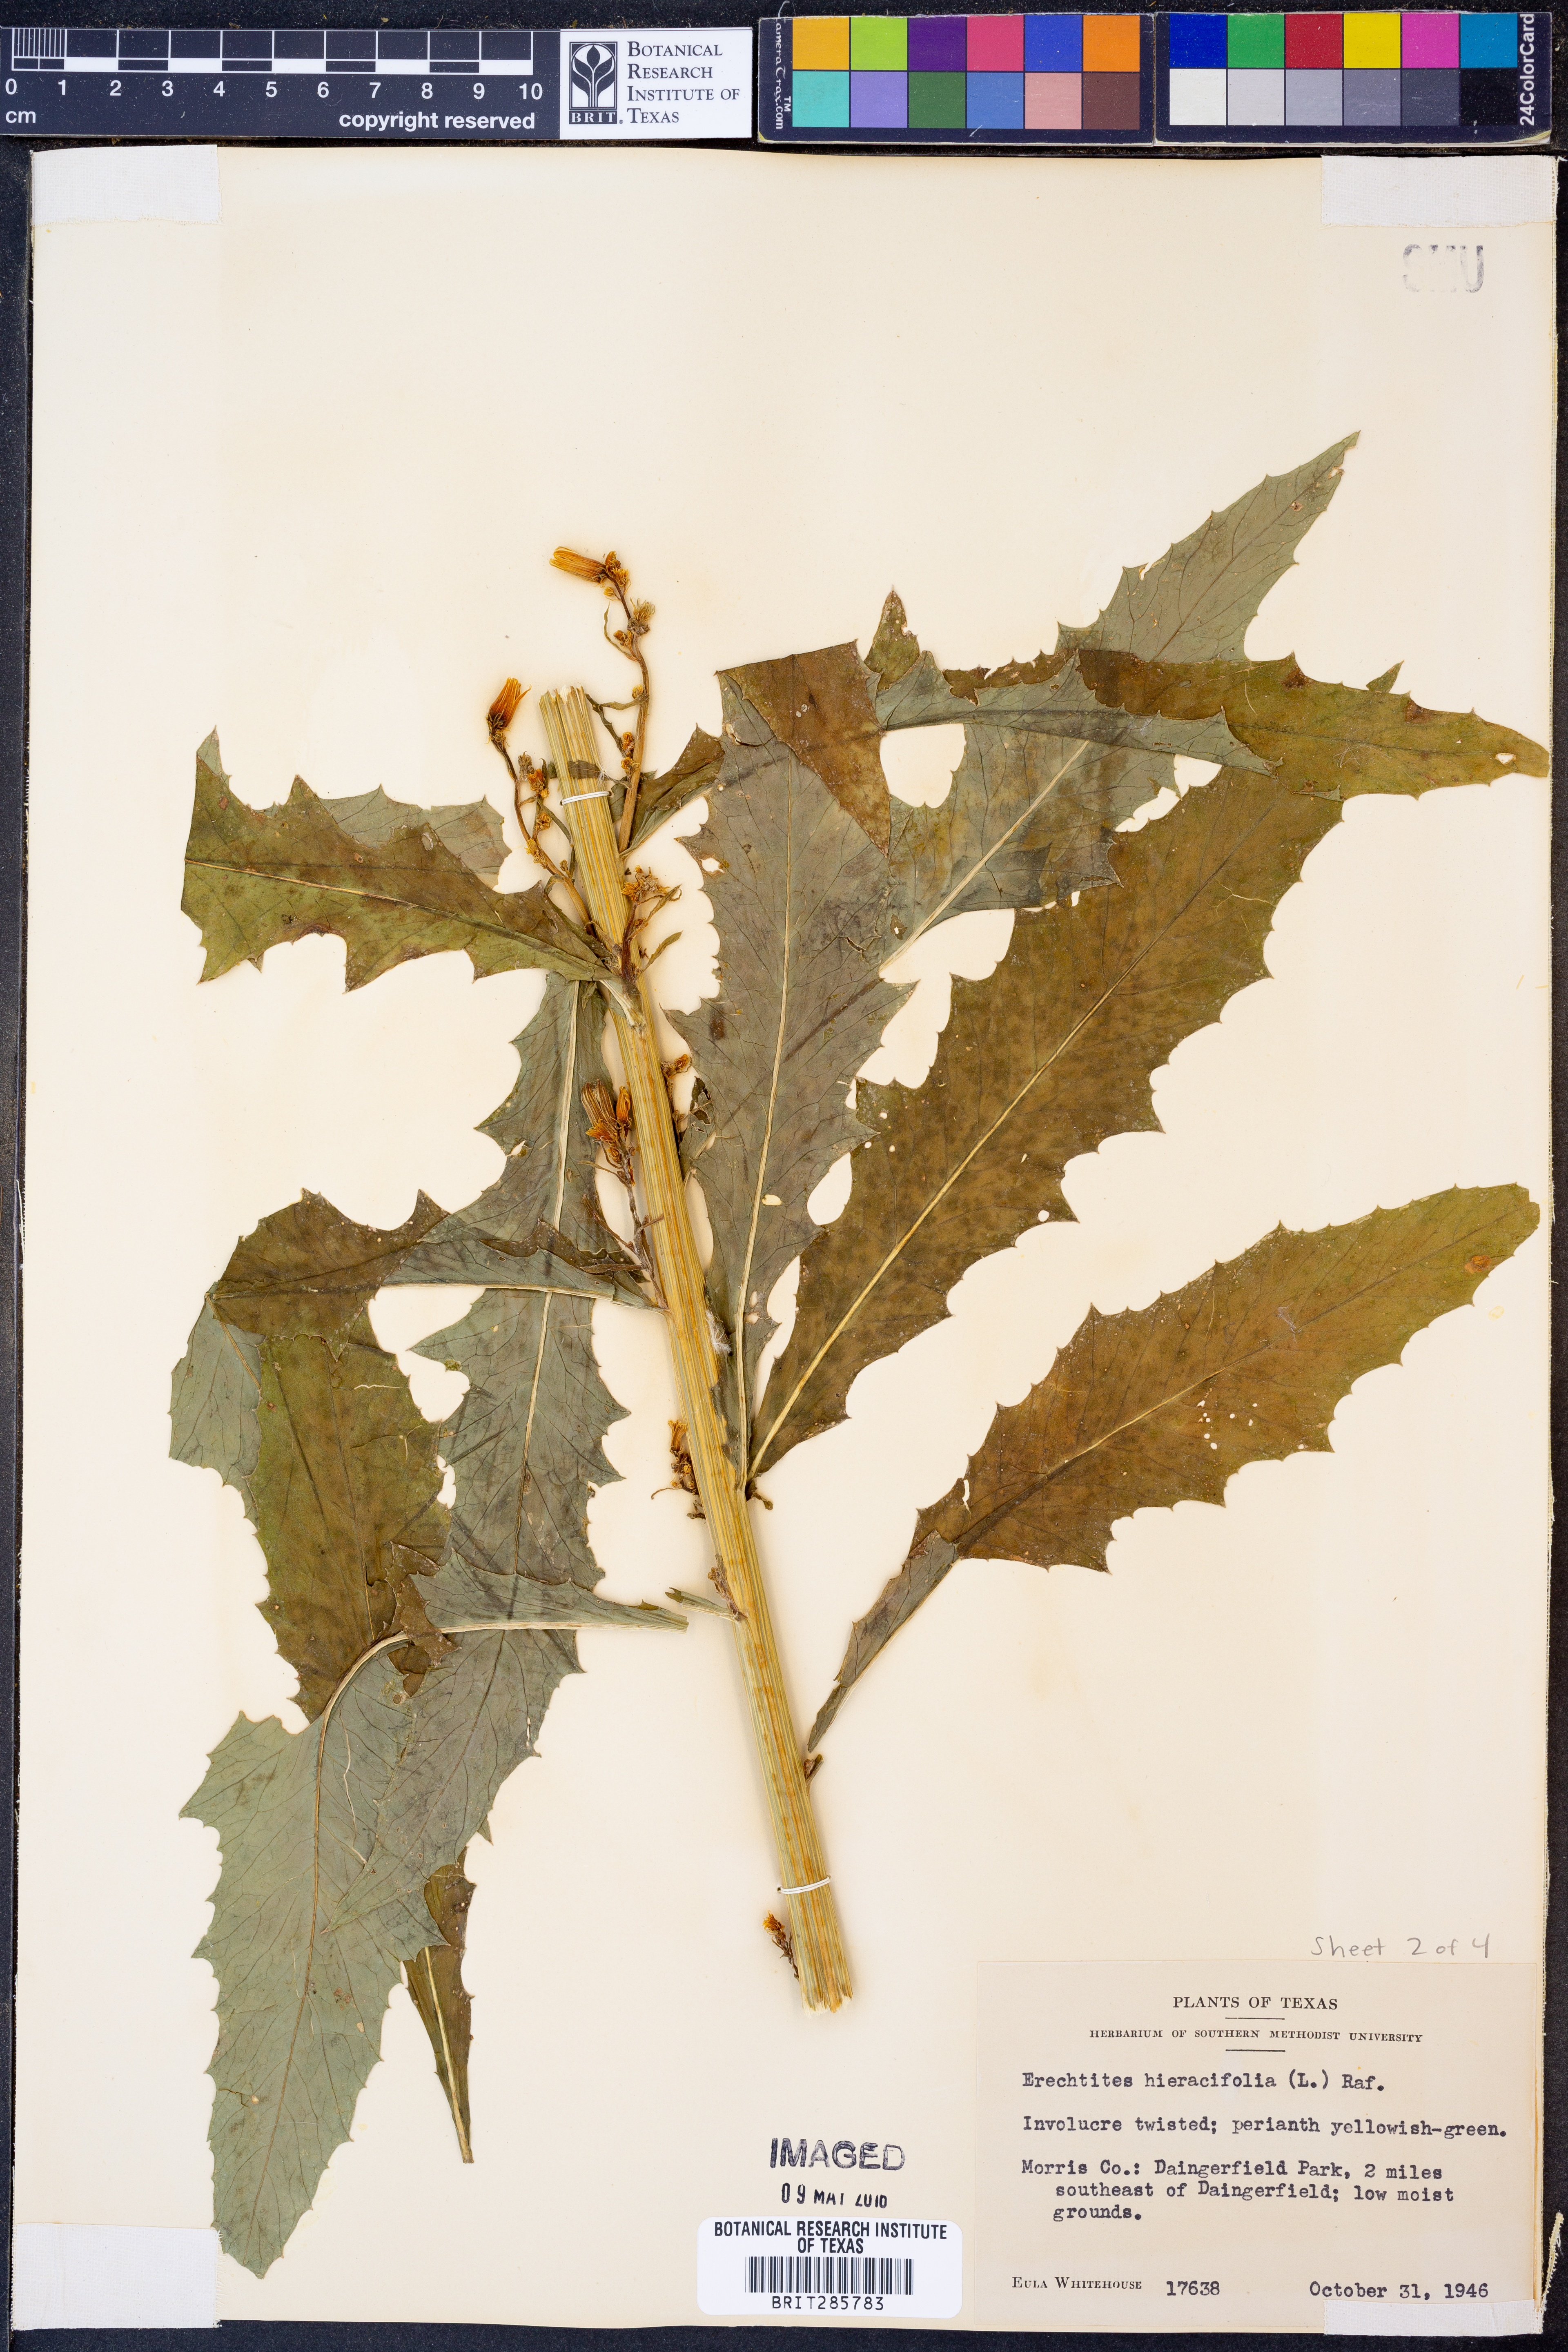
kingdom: Plantae
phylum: Tracheophyta
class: Magnoliopsida
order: Asterales
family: Asteraceae
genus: Erechtites
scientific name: Erechtites hieraciifolius
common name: American burnweed
